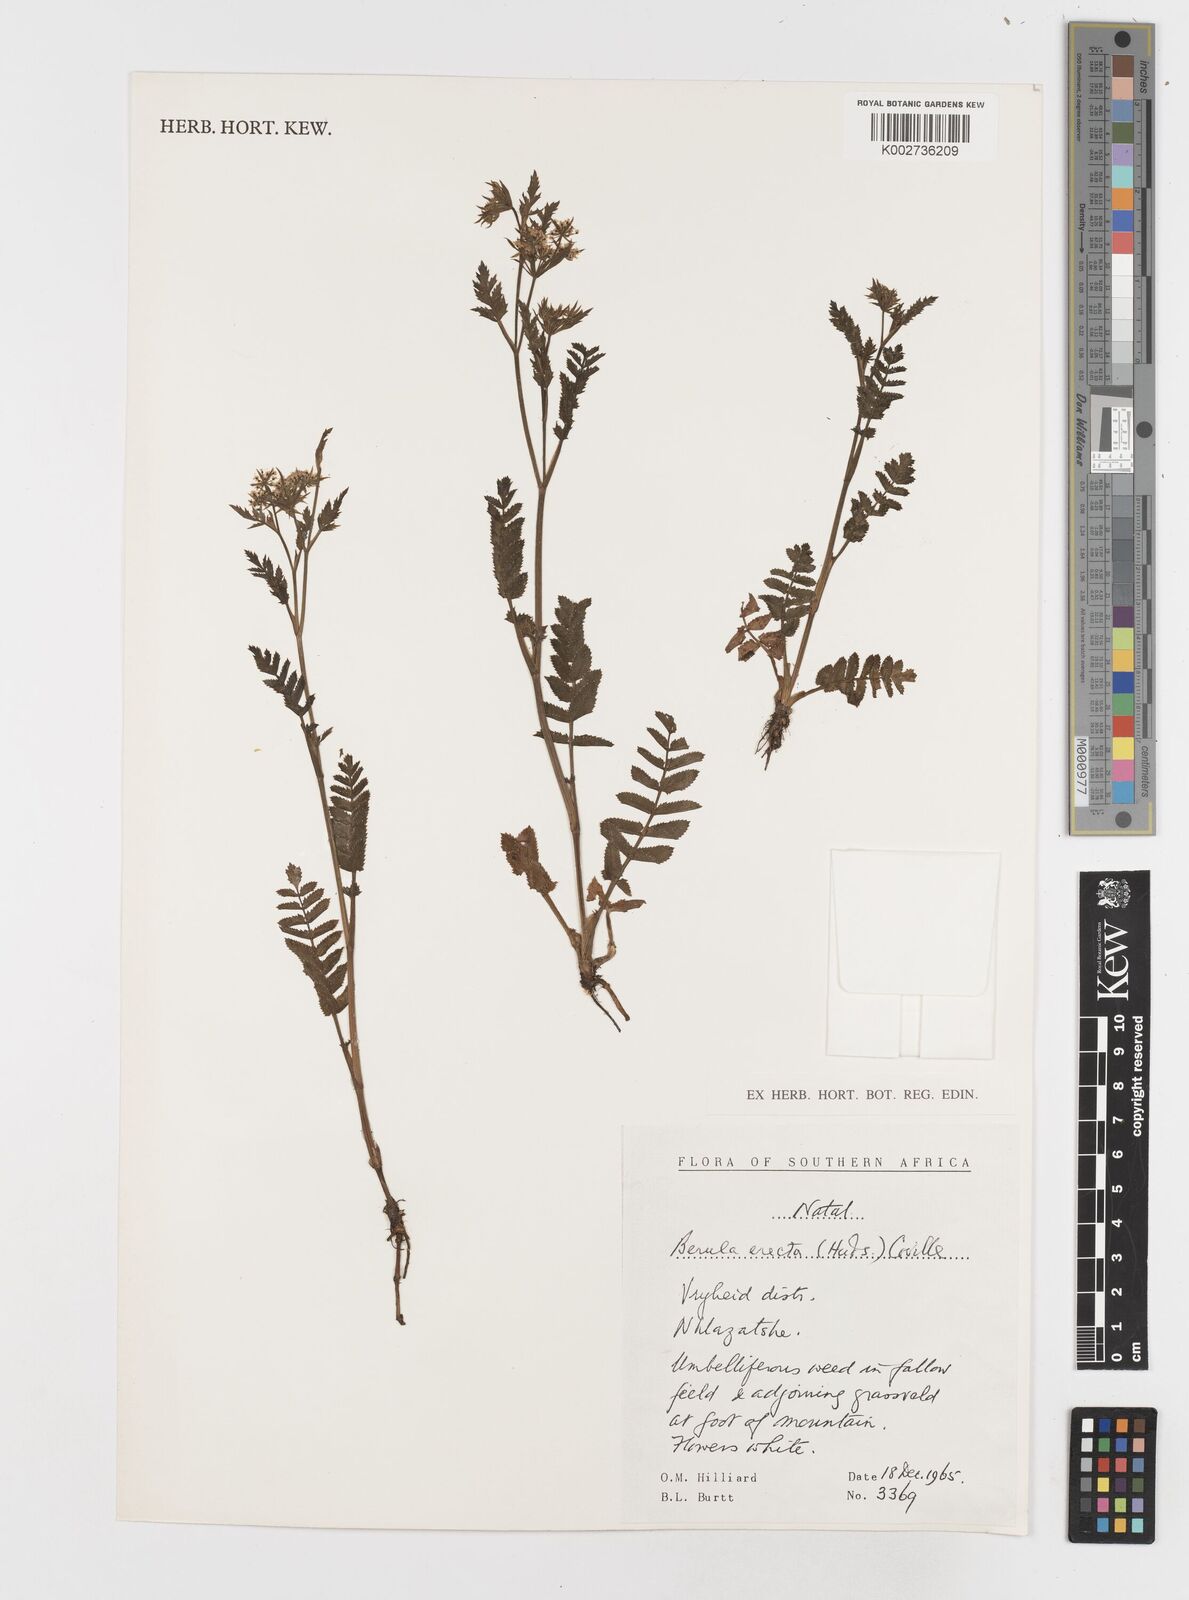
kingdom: Plantae
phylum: Tracheophyta
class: Magnoliopsida
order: Apiales
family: Apiaceae
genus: Berula
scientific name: Berula erecta
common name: Lesser water-parsnip
